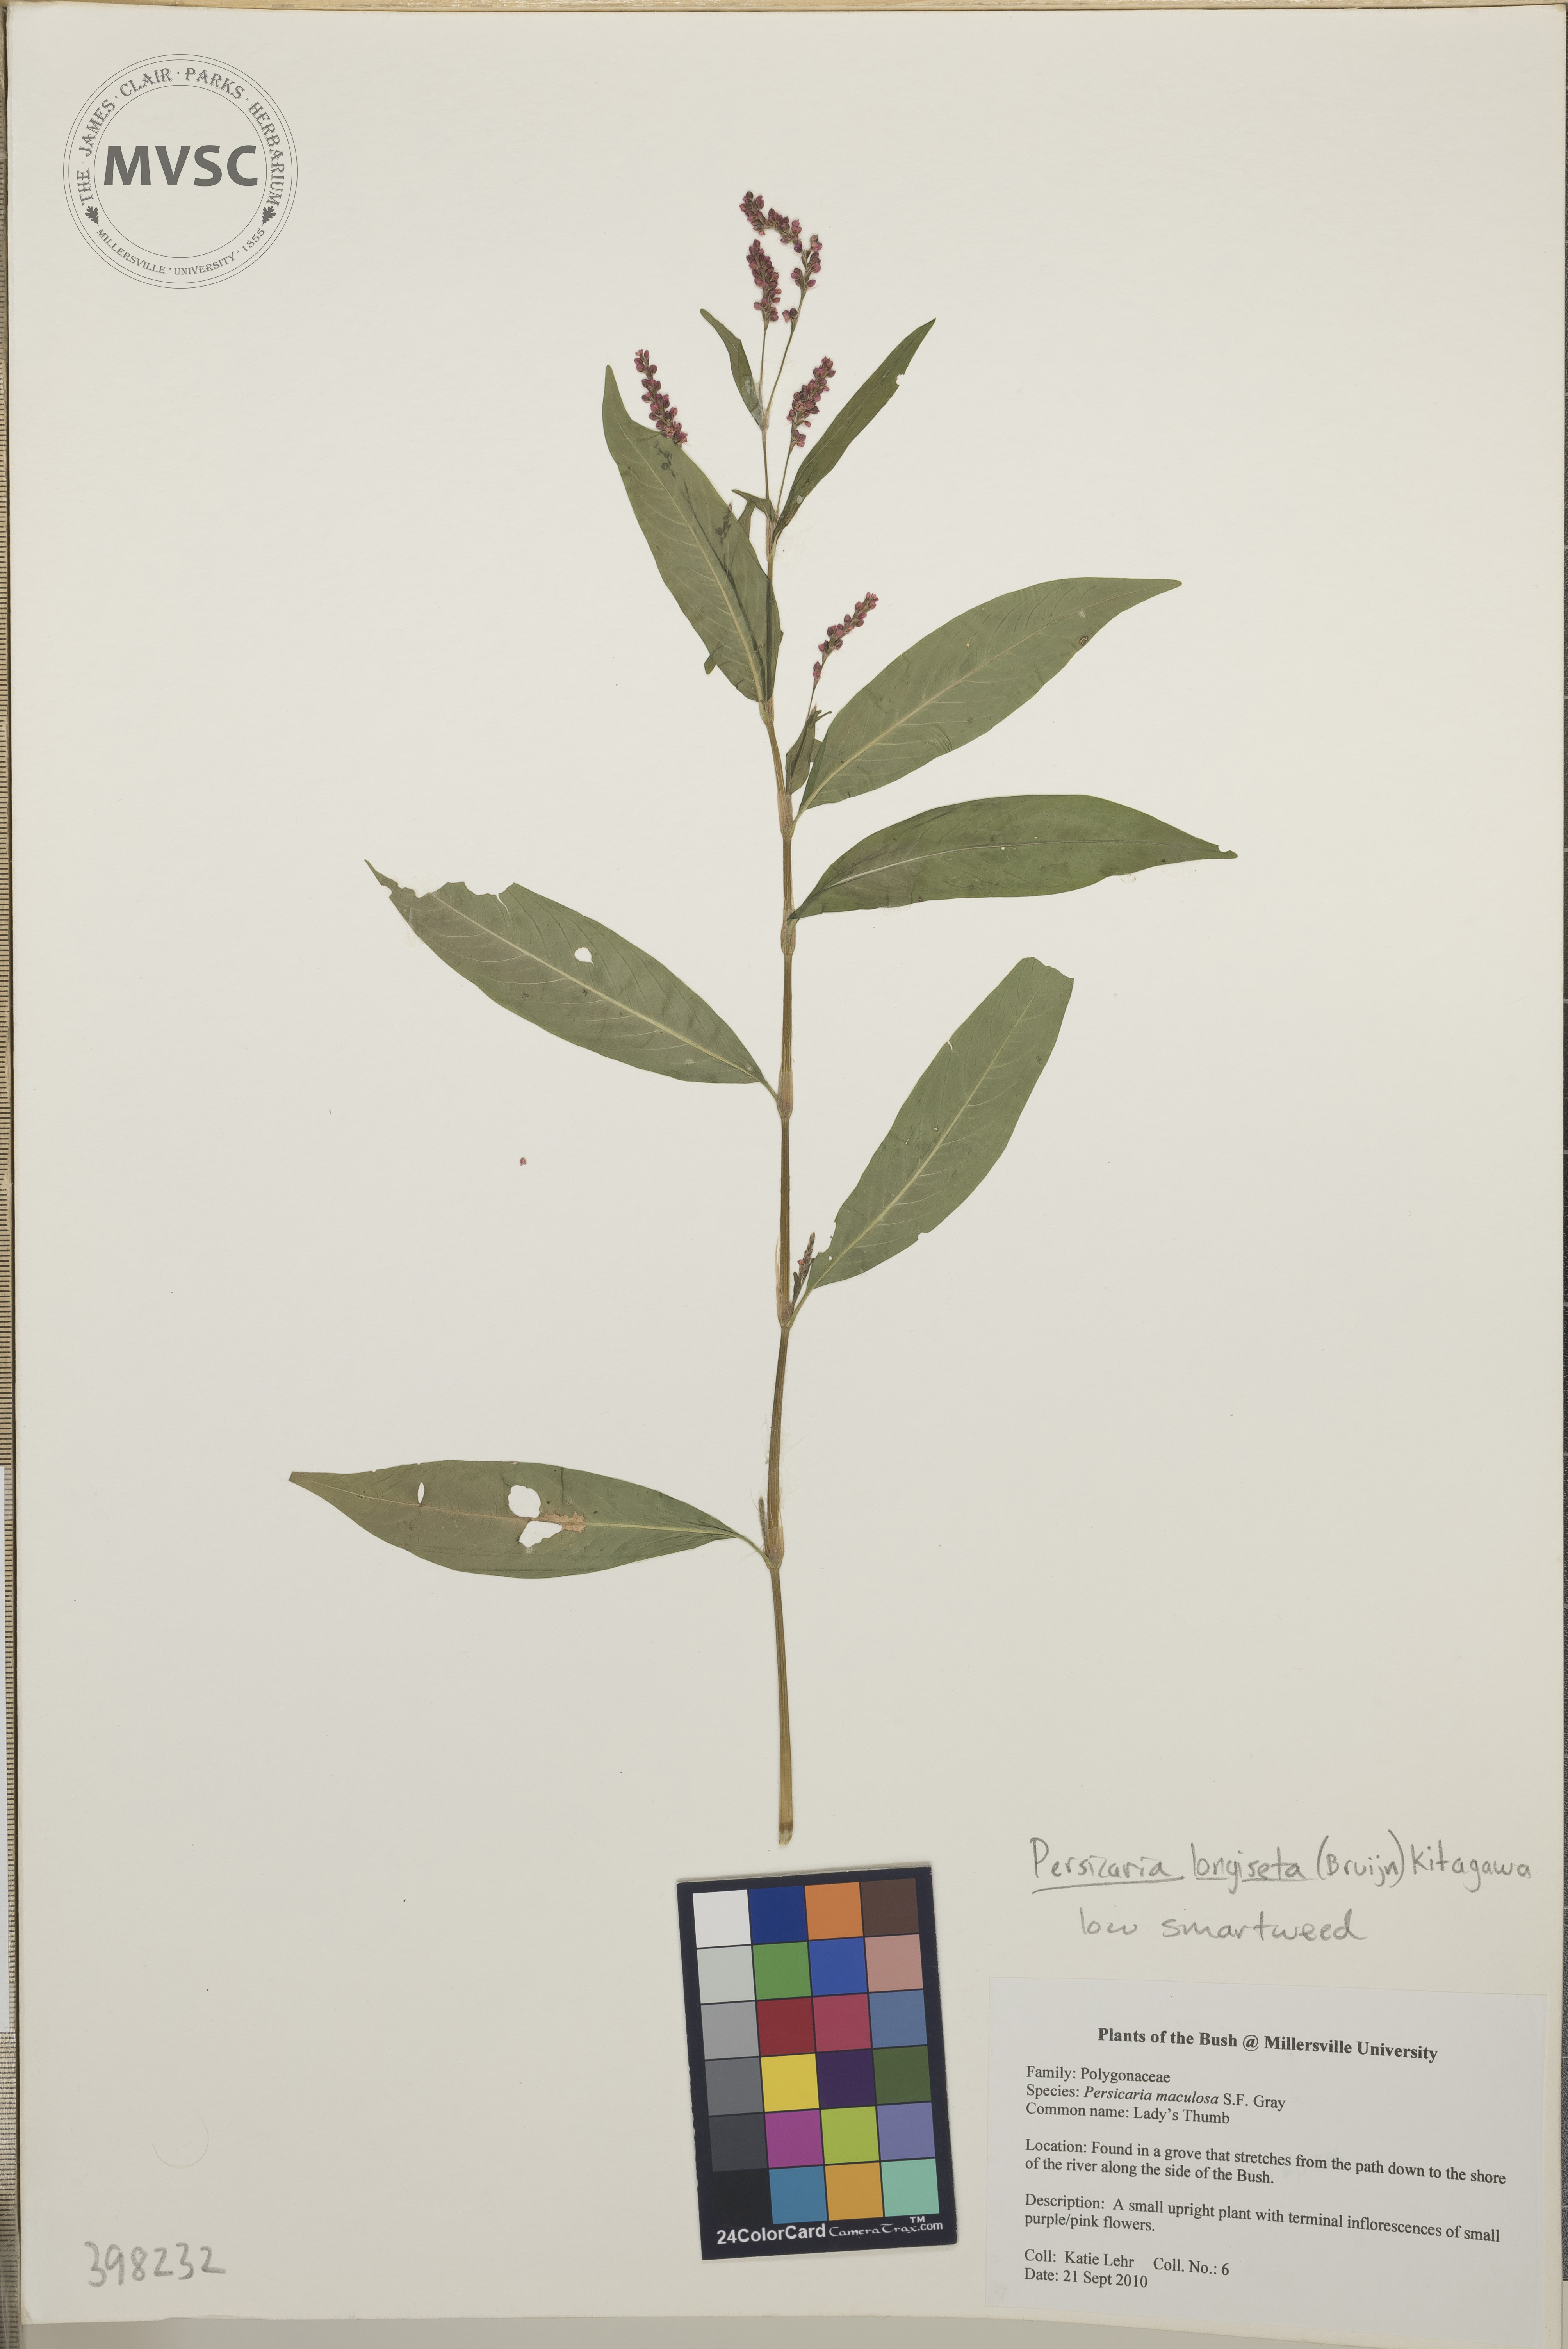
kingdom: Plantae
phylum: Tracheophyta
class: Magnoliopsida
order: Caryophyllales
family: Polygonaceae
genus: Persicaria
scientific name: Persicaria longiseta
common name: Low smartweed
